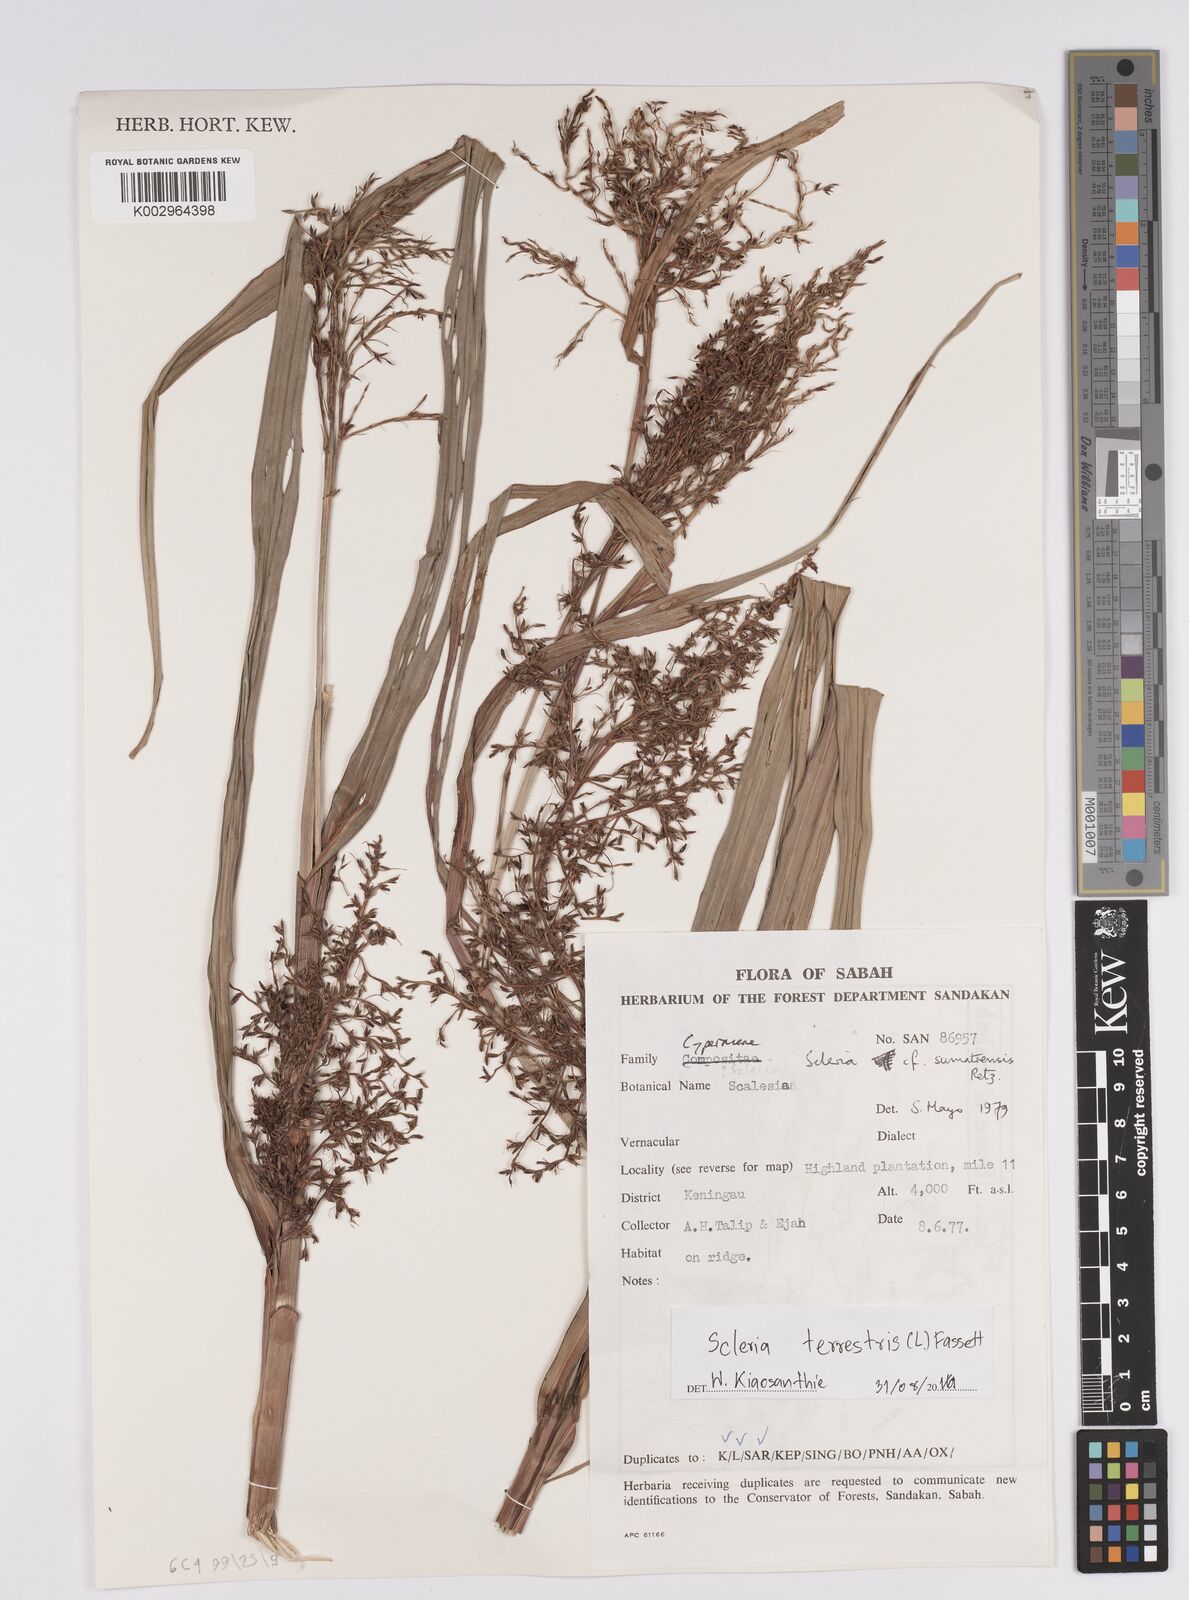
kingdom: Plantae
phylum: Tracheophyta
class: Liliopsida
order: Poales
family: Cyperaceae
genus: Scleria
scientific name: Scleria terrestris
